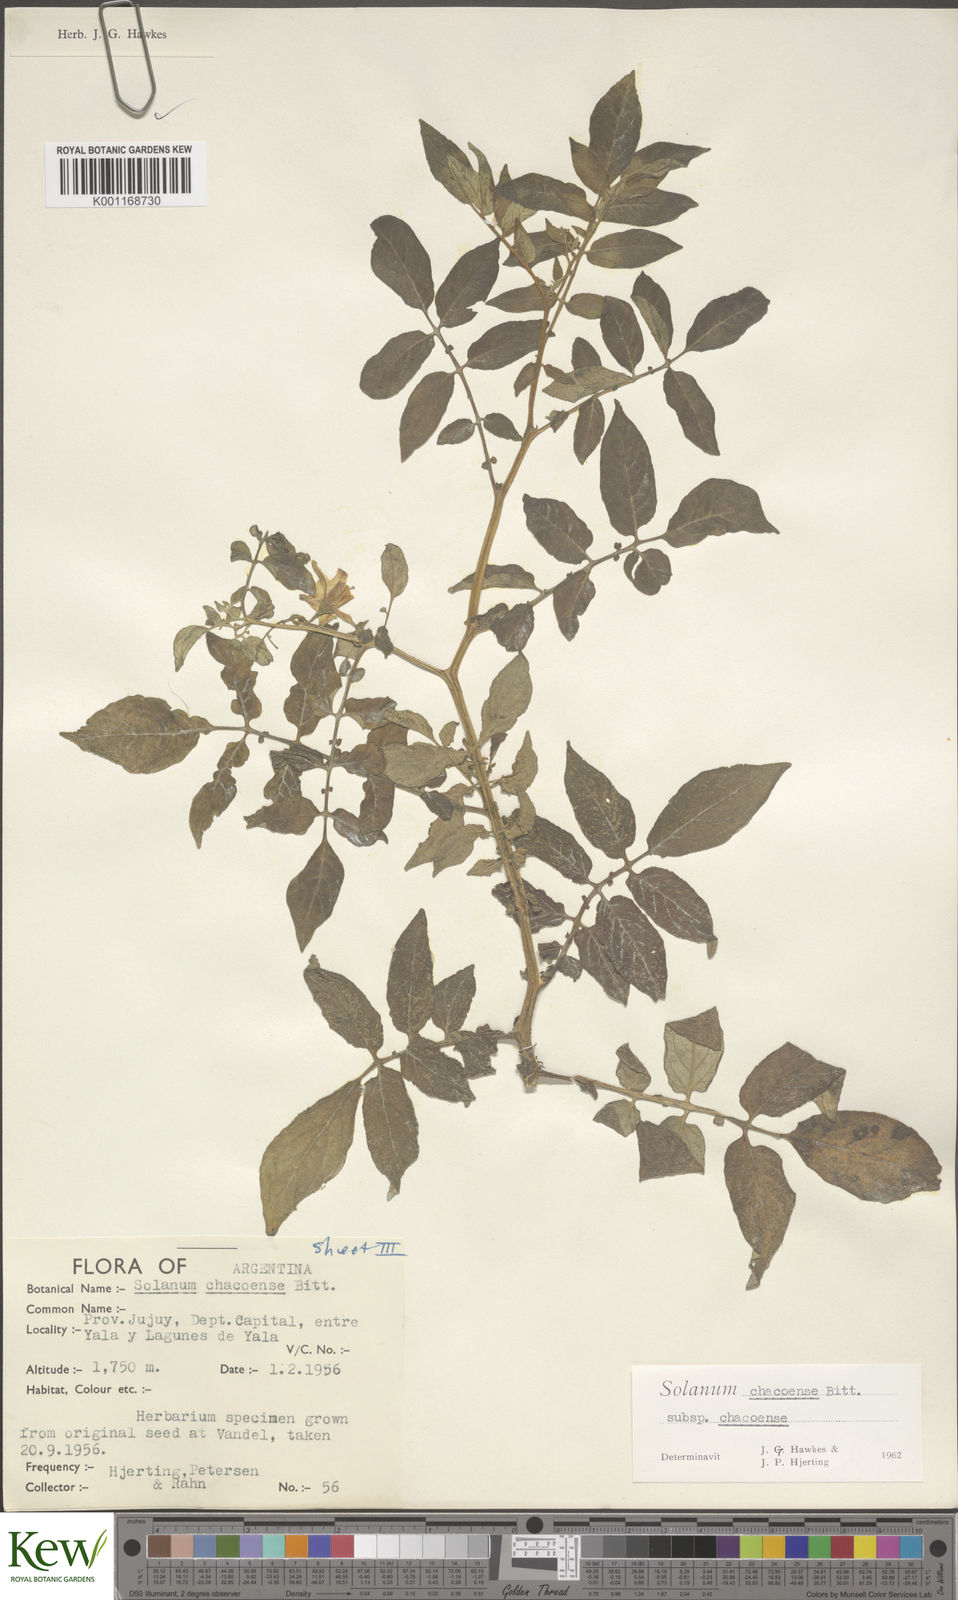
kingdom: Plantae
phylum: Tracheophyta
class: Magnoliopsida
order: Solanales
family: Solanaceae
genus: Solanum
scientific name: Solanum chacoense
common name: Chaco potato
